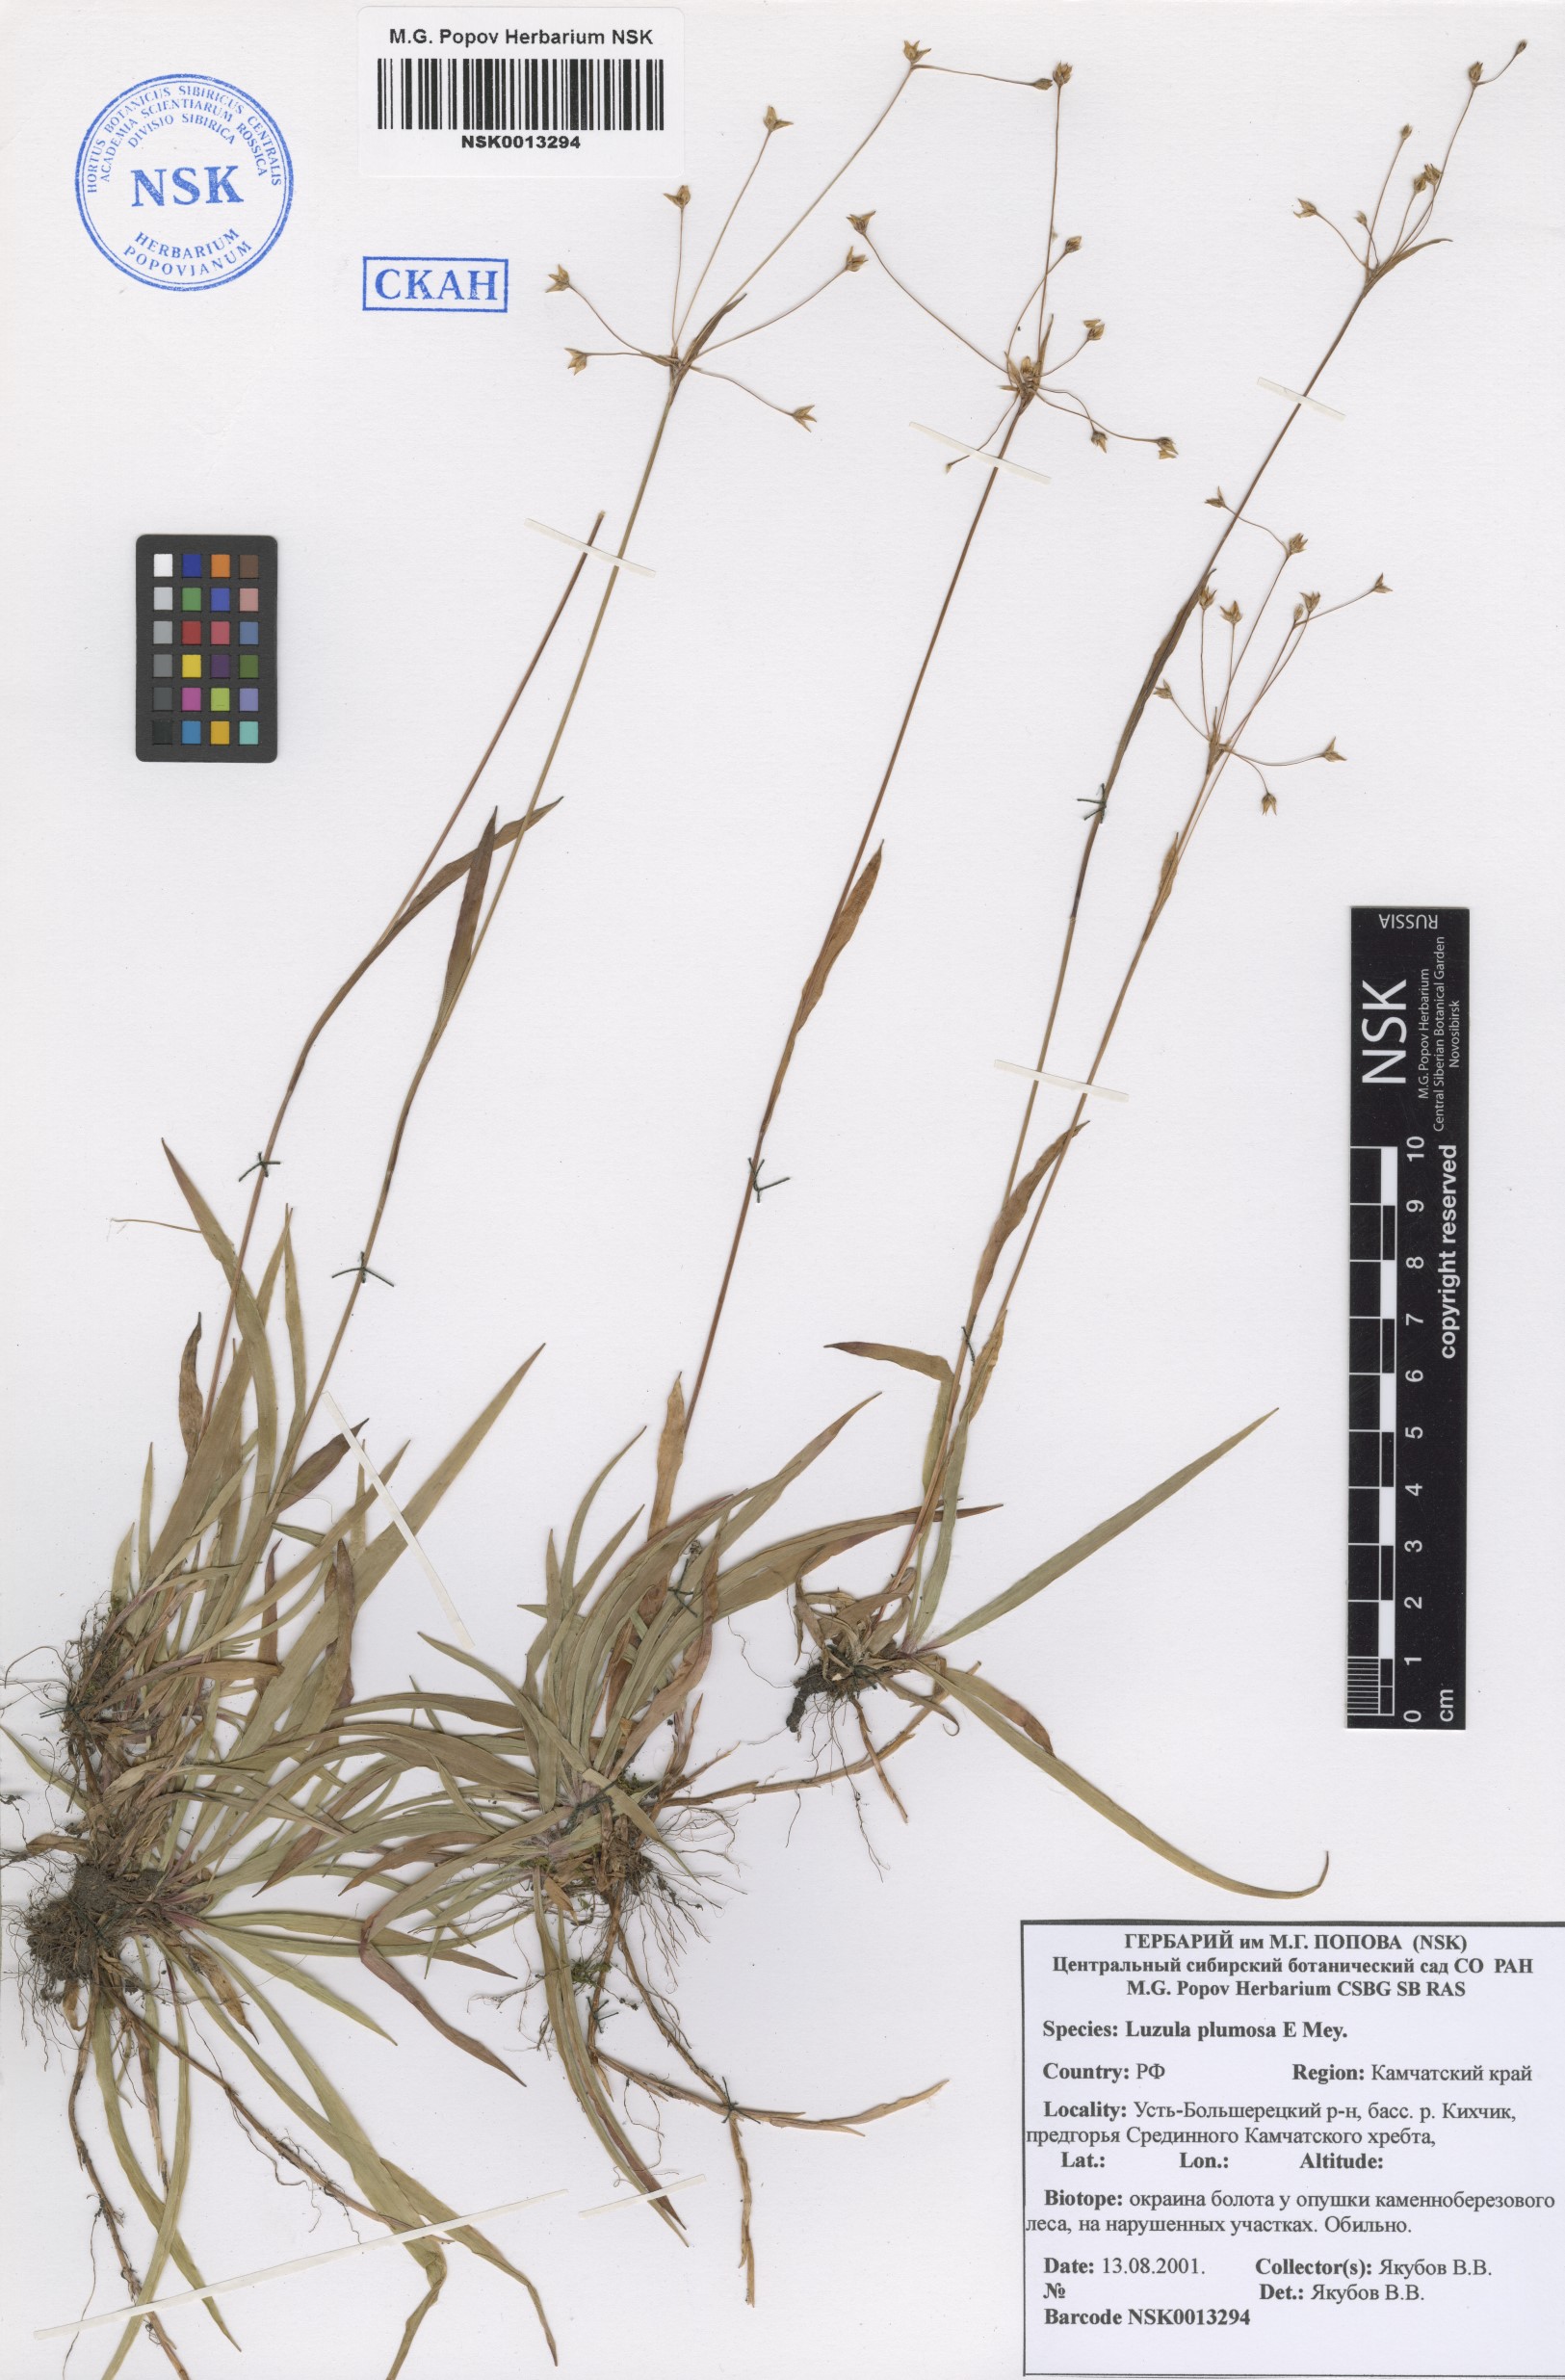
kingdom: Plantae
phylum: Tracheophyta
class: Liliopsida
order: Poales
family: Juncaceae
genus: Luzula
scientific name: Luzula plumosa
